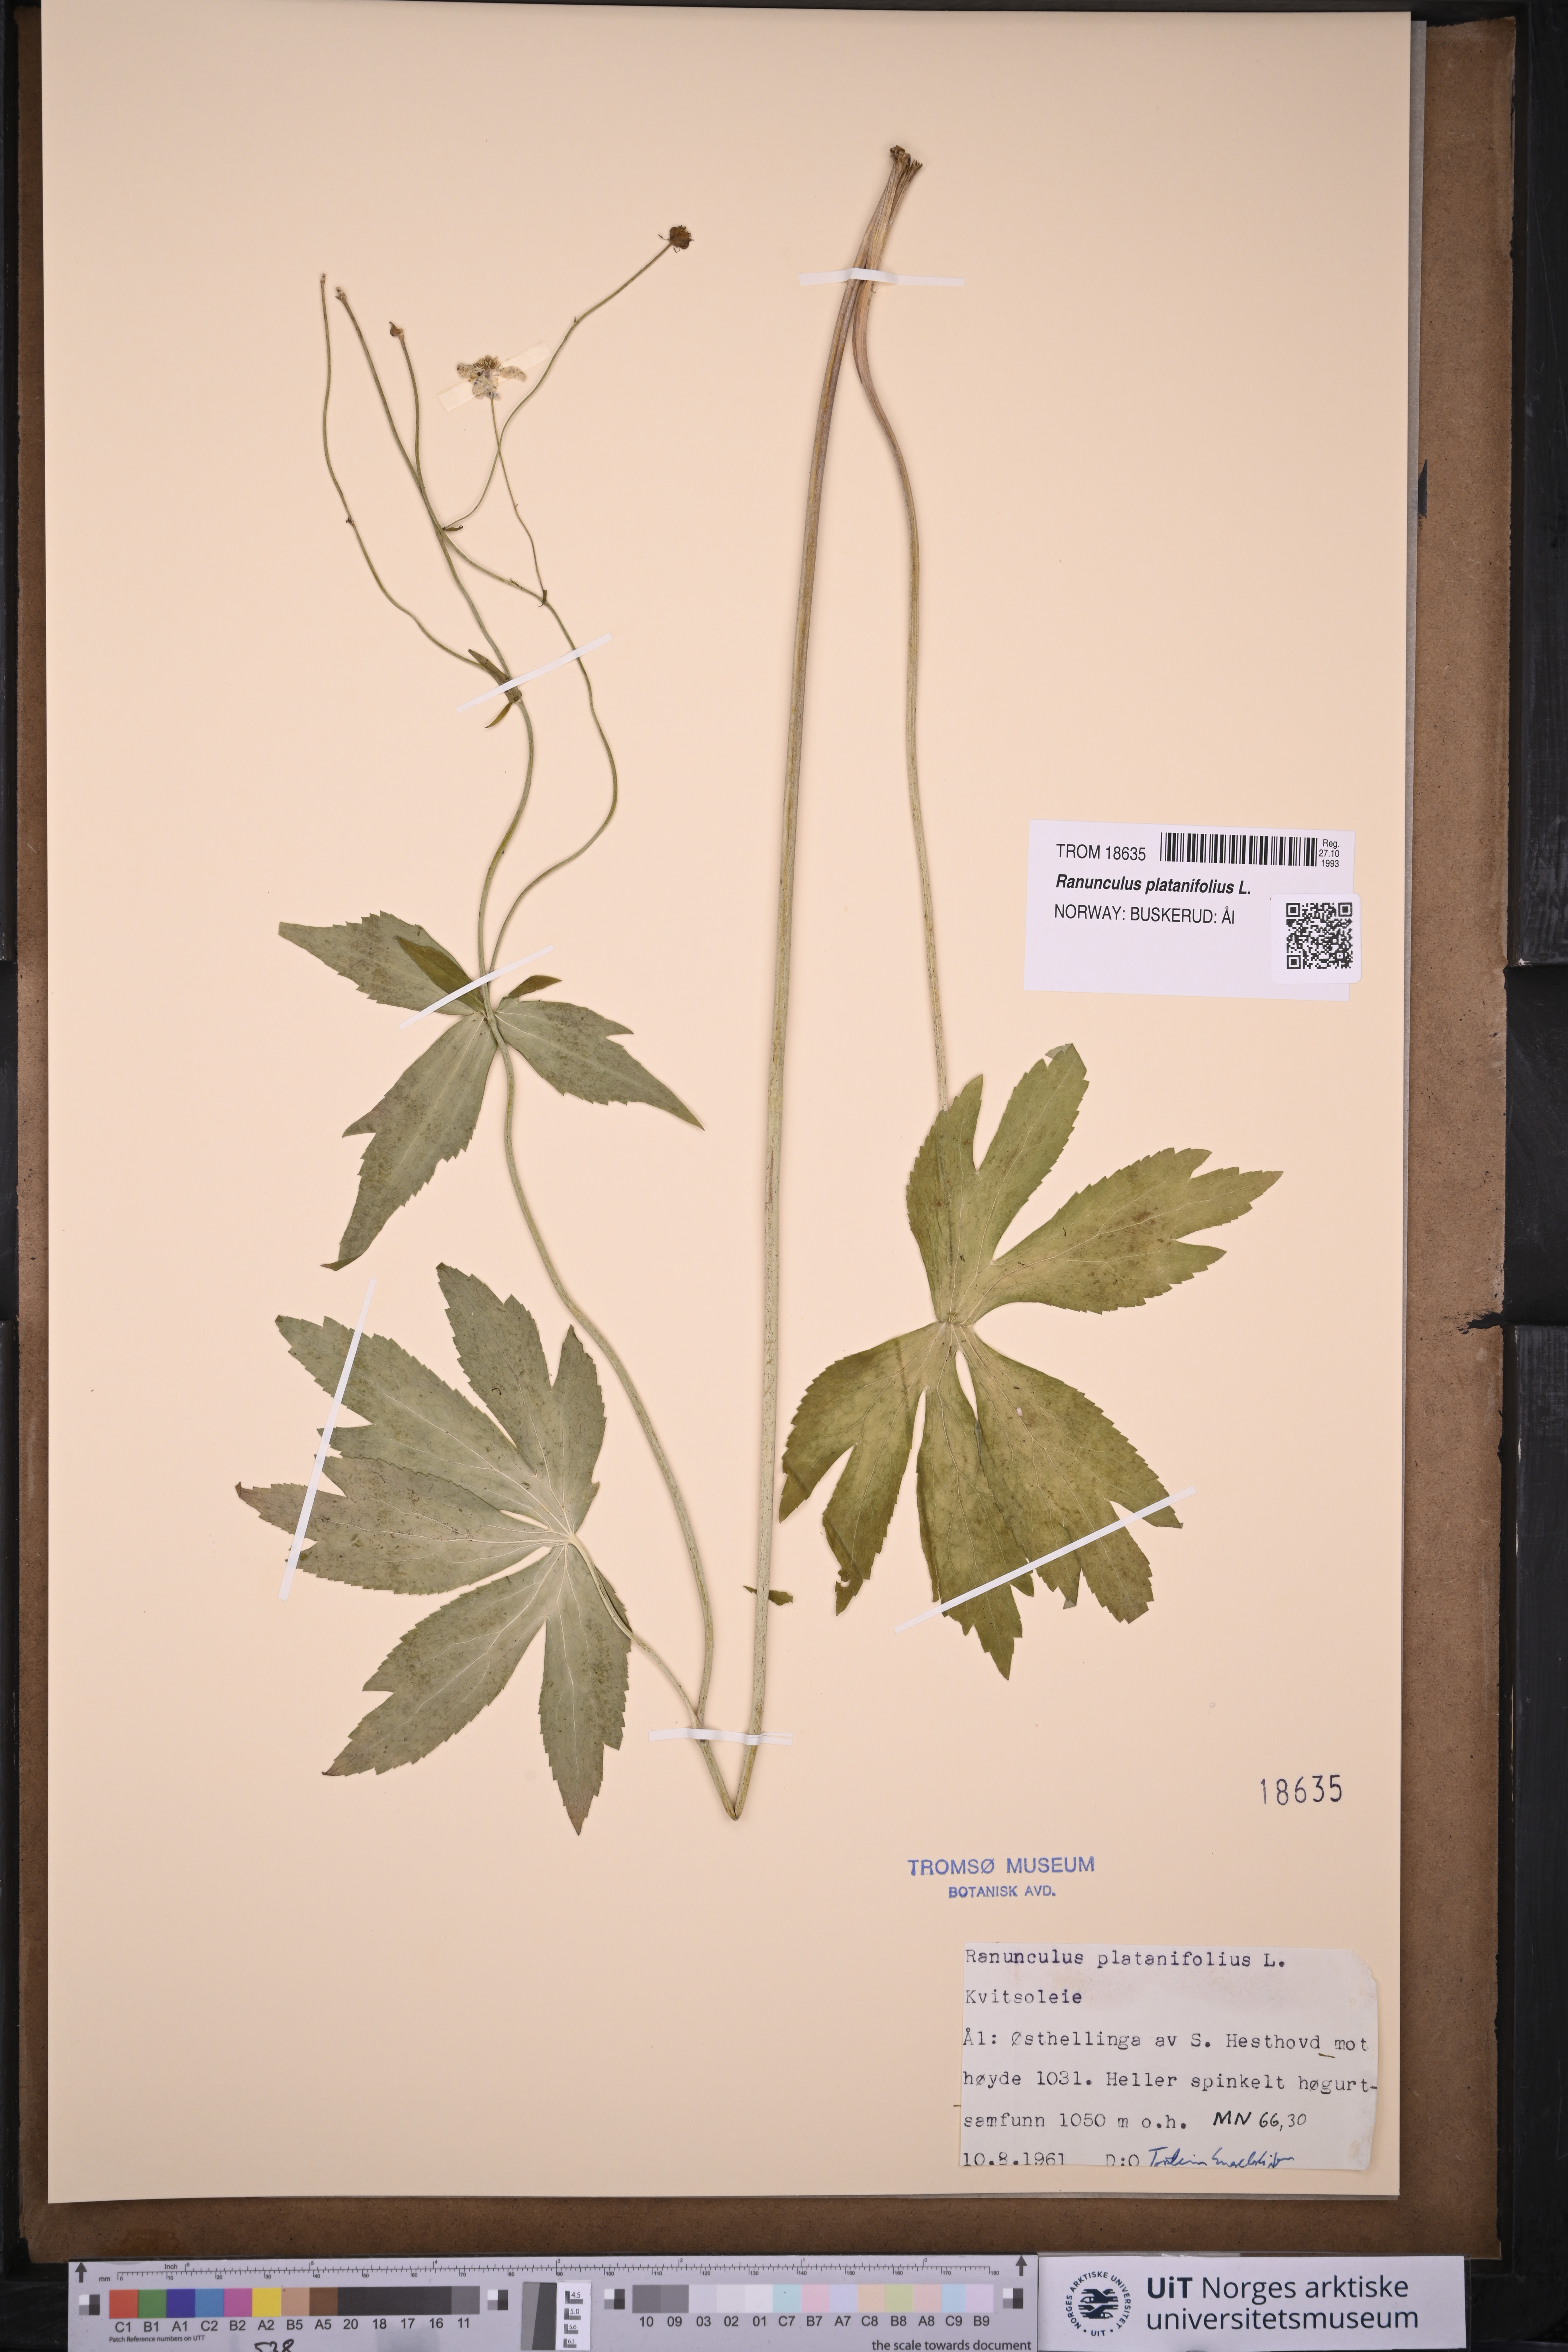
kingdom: Plantae
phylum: Tracheophyta
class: Magnoliopsida
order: Ranunculales
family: Ranunculaceae
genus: Ranunculus
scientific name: Ranunculus platanifolius
